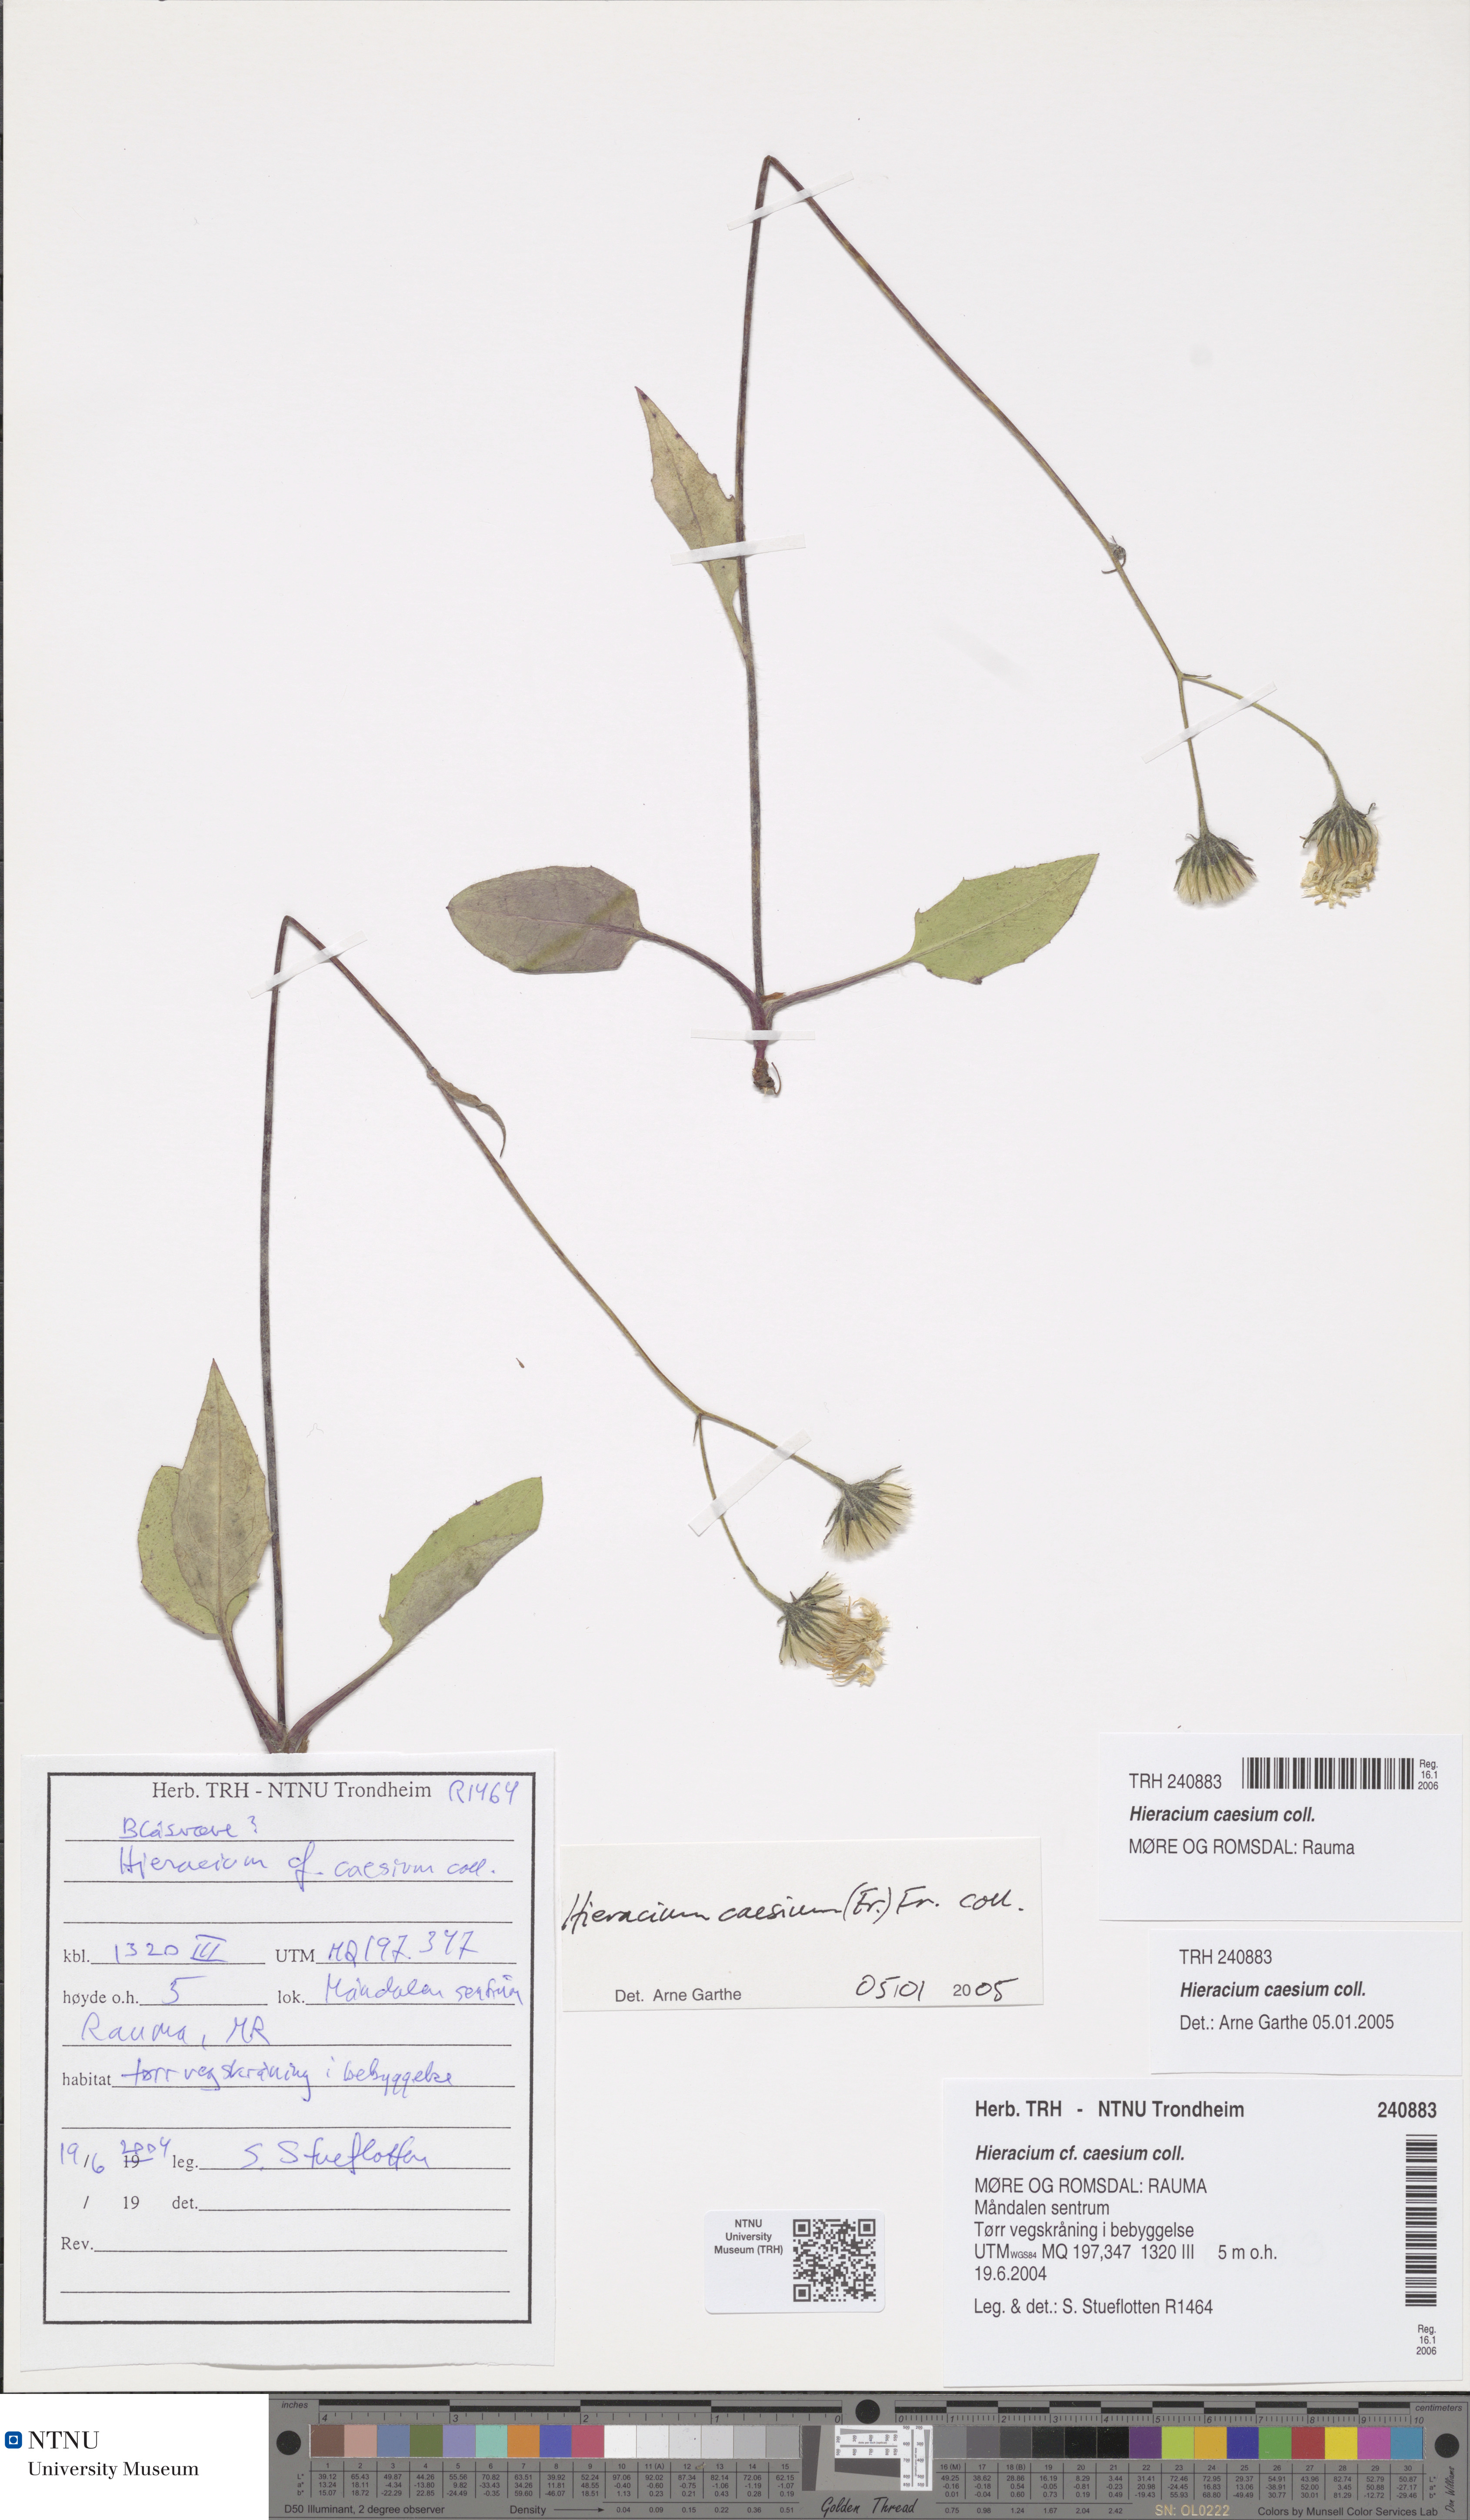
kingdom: Plantae
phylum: Tracheophyta
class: Magnoliopsida
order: Asterales
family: Asteraceae
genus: Hieracium
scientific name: Hieracium caesium
